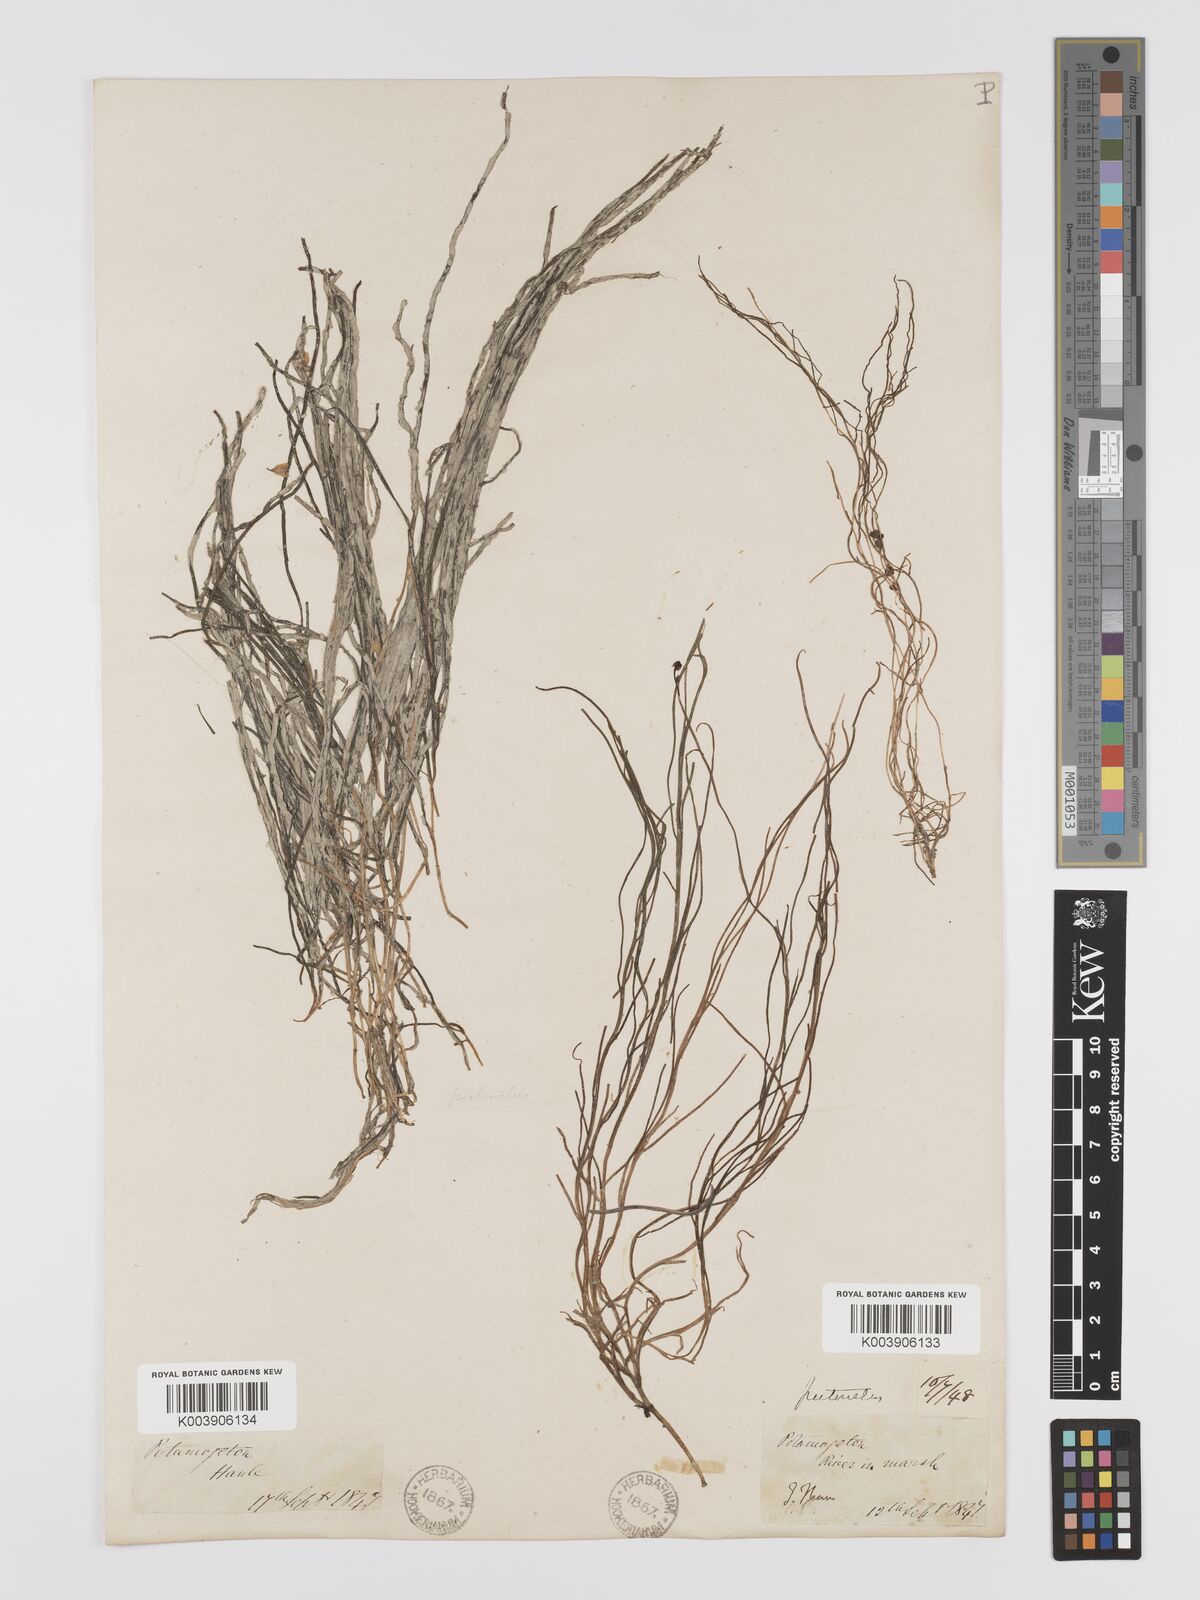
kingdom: Plantae
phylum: Tracheophyta
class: Liliopsida
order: Alismatales
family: Potamogetonaceae
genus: Stuckenia
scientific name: Stuckenia pectinata
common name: Sago pondweed
